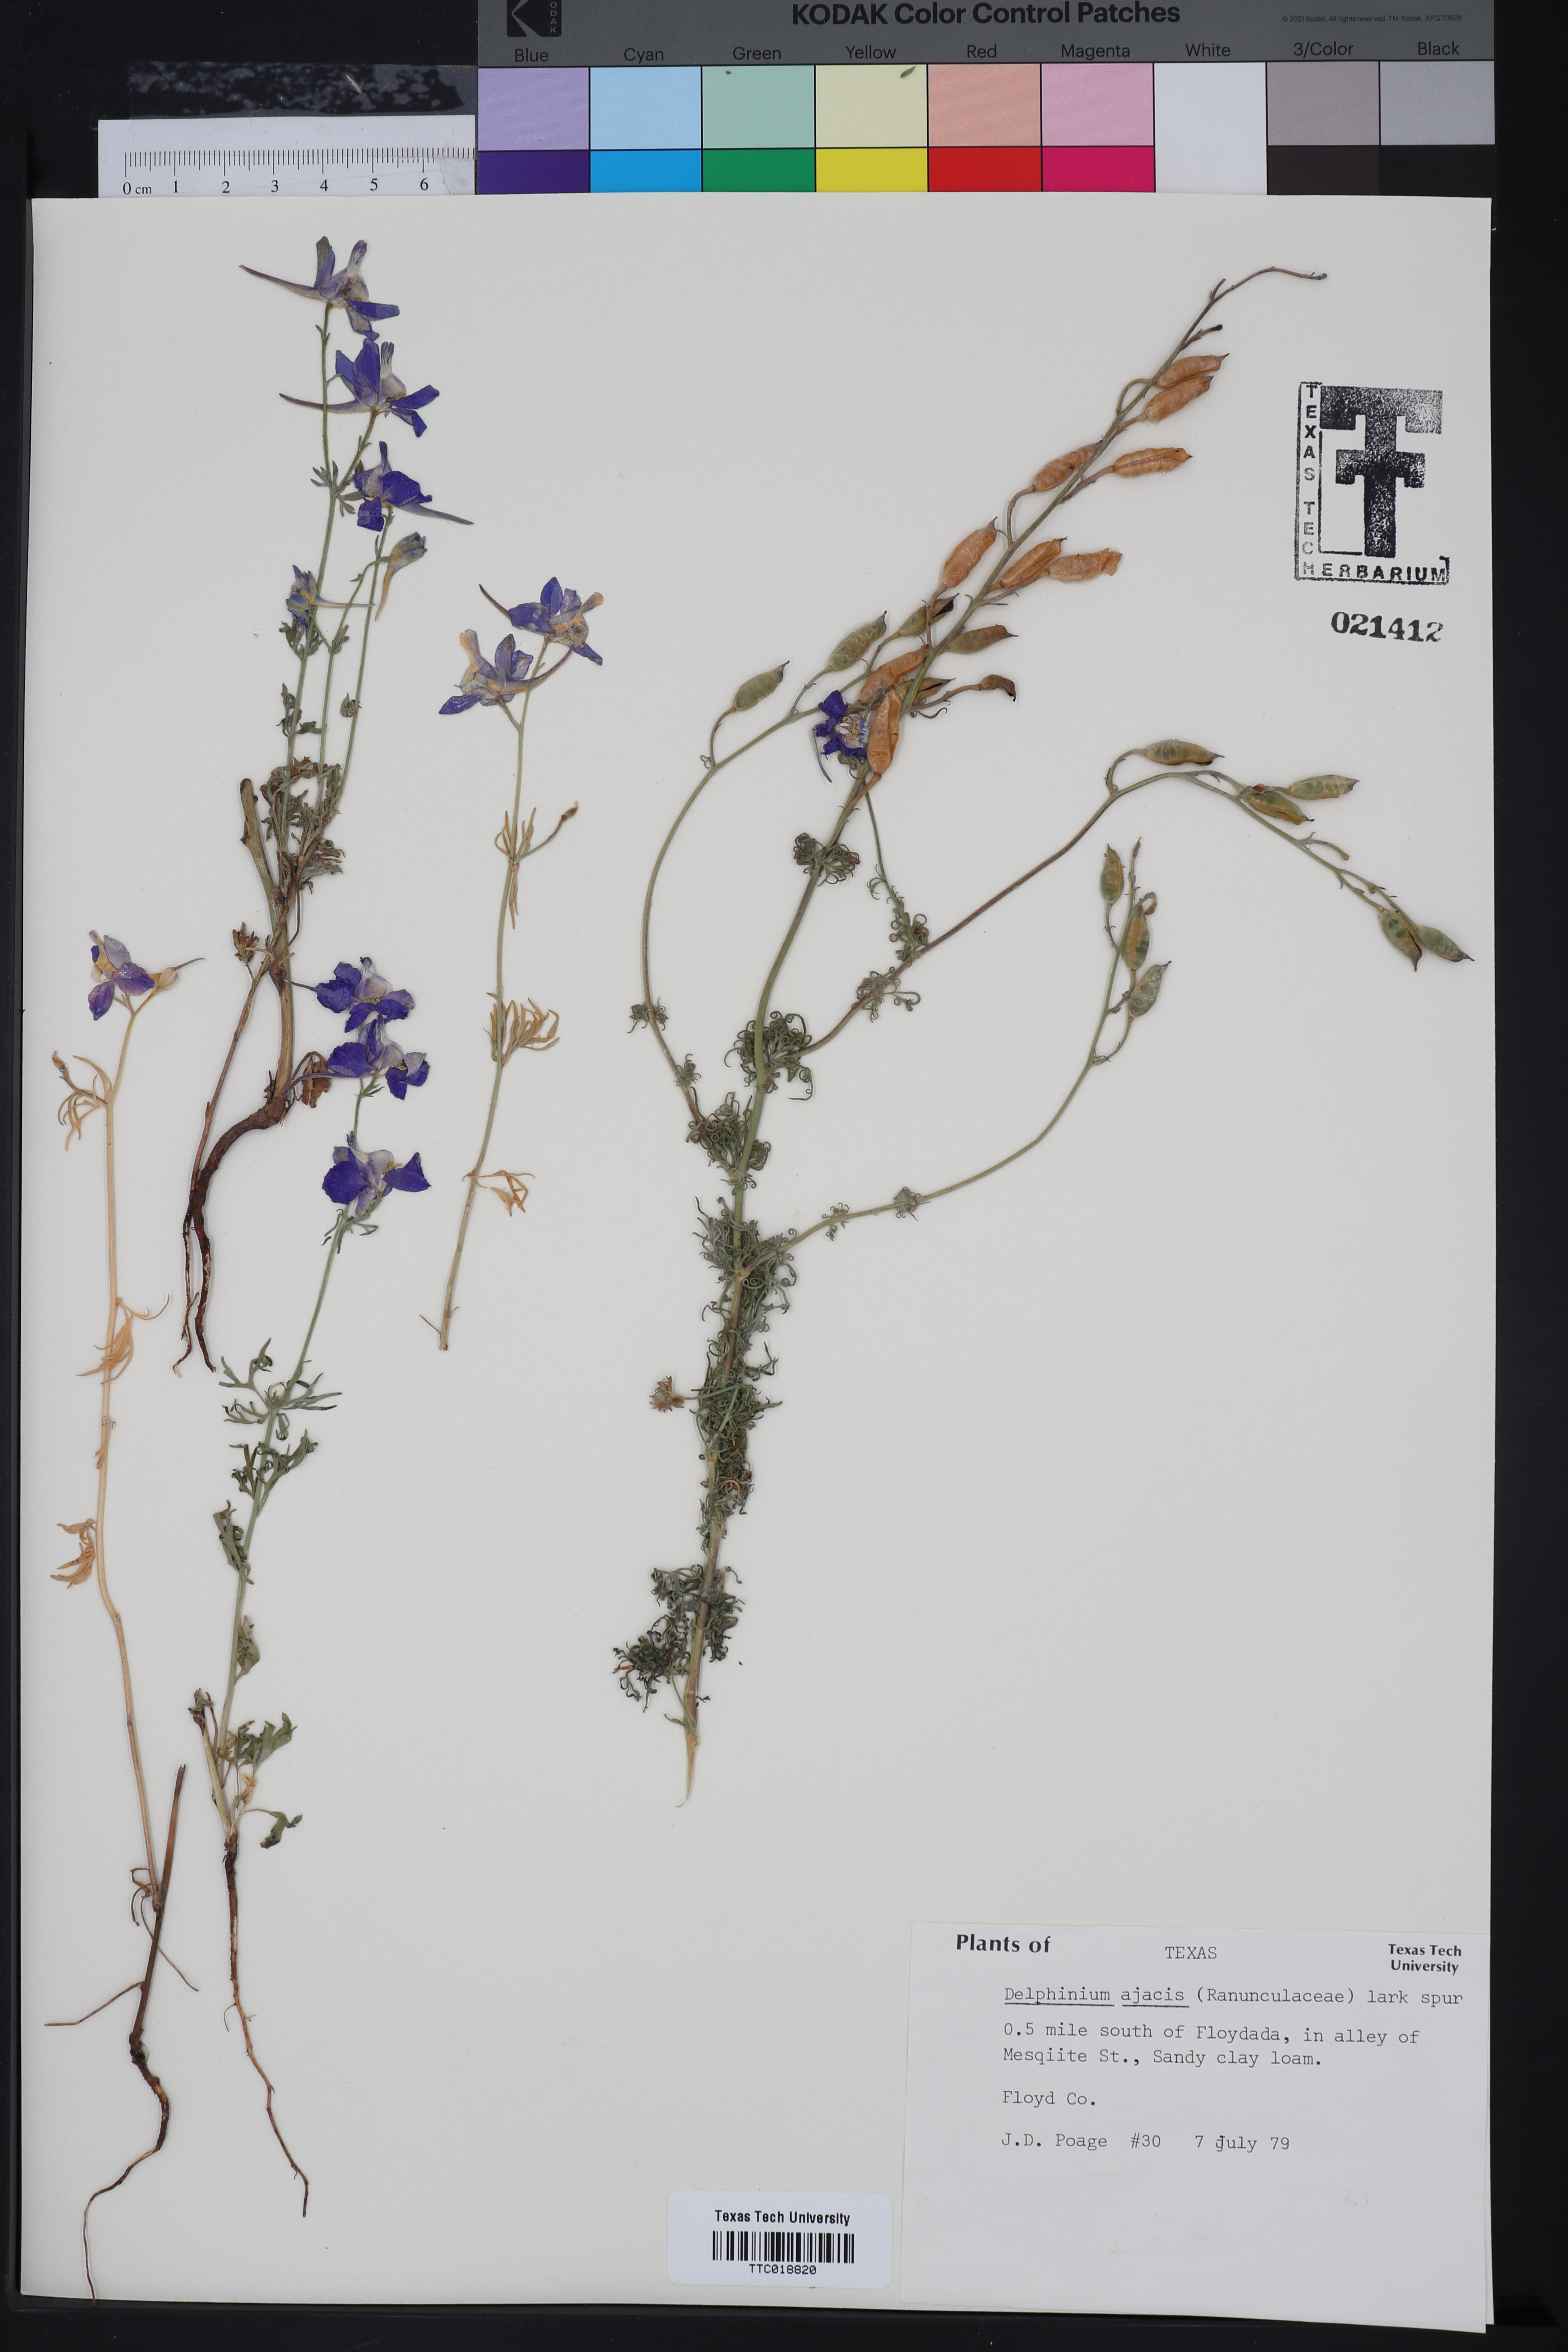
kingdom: Plantae
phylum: Tracheophyta
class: Magnoliopsida
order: Ranunculales
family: Ranunculaceae
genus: Delphinium
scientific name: Delphinium ajacis
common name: Doubtful knight's-spur
